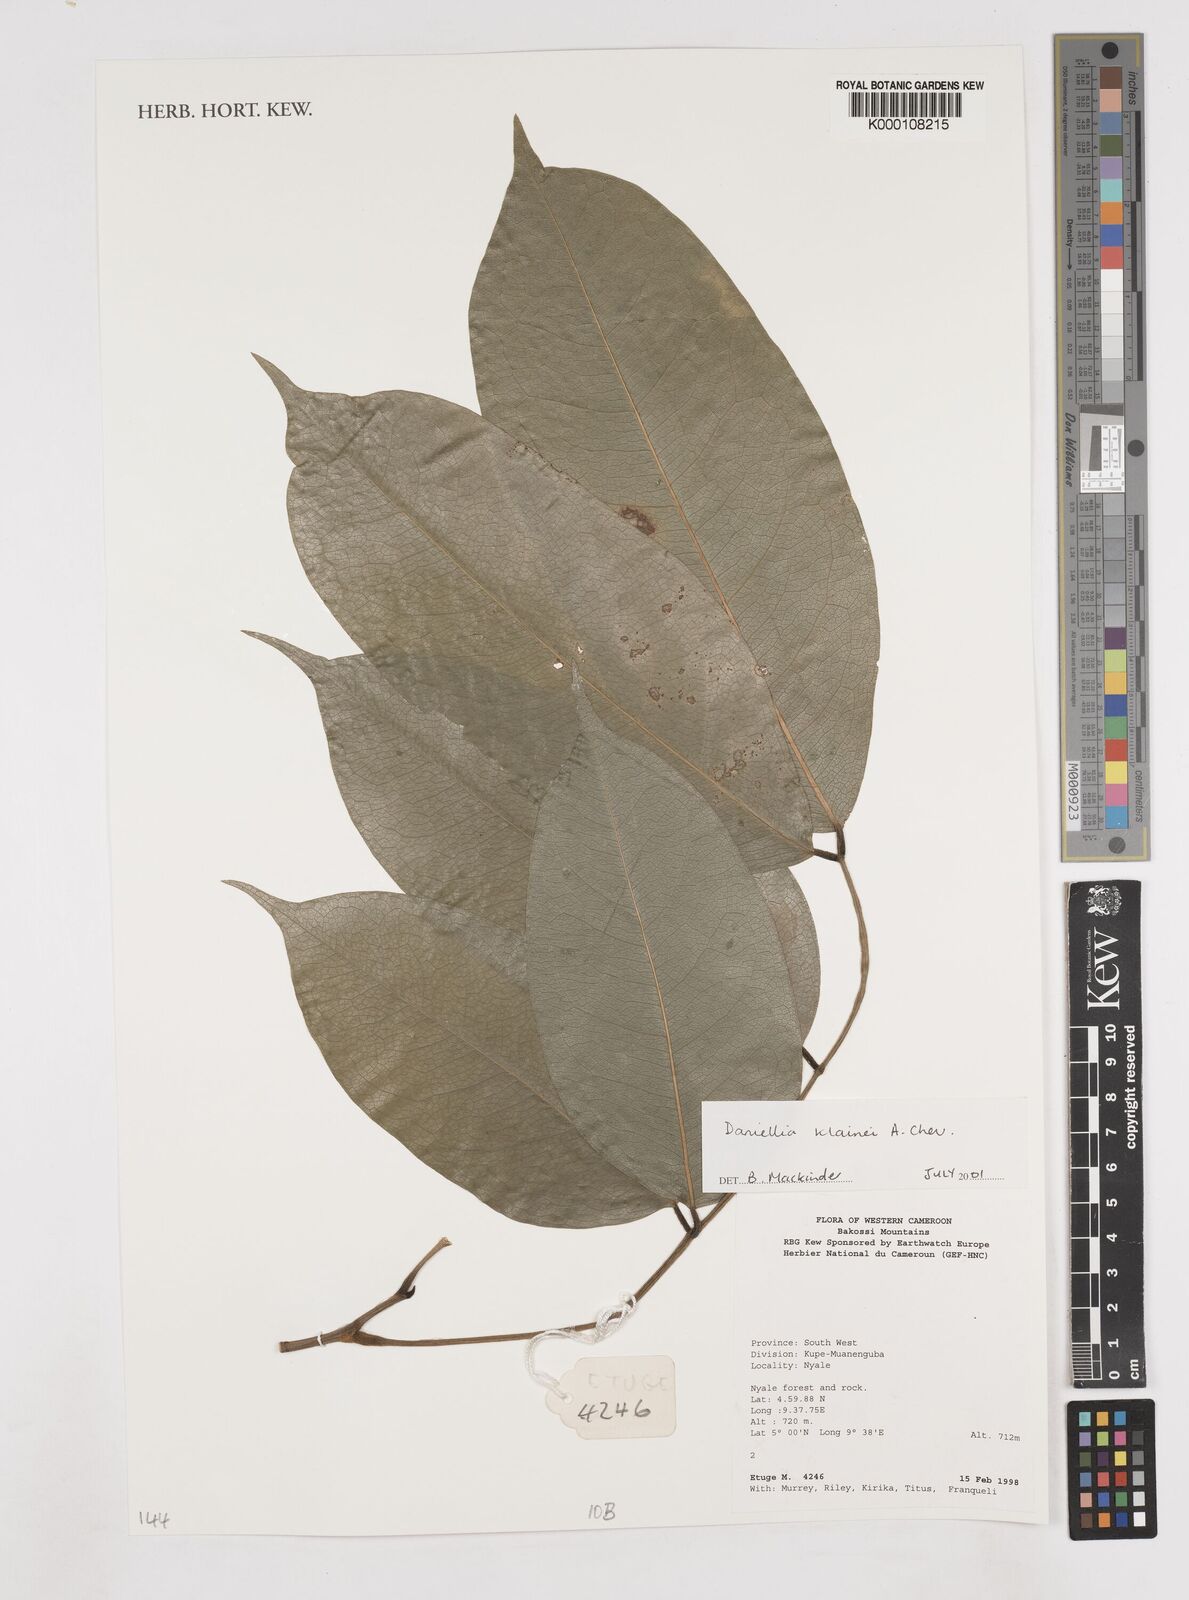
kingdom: Plantae
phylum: Tracheophyta
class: Magnoliopsida
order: Fabales
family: Fabaceae
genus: Daniellia
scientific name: Daniellia klainei
